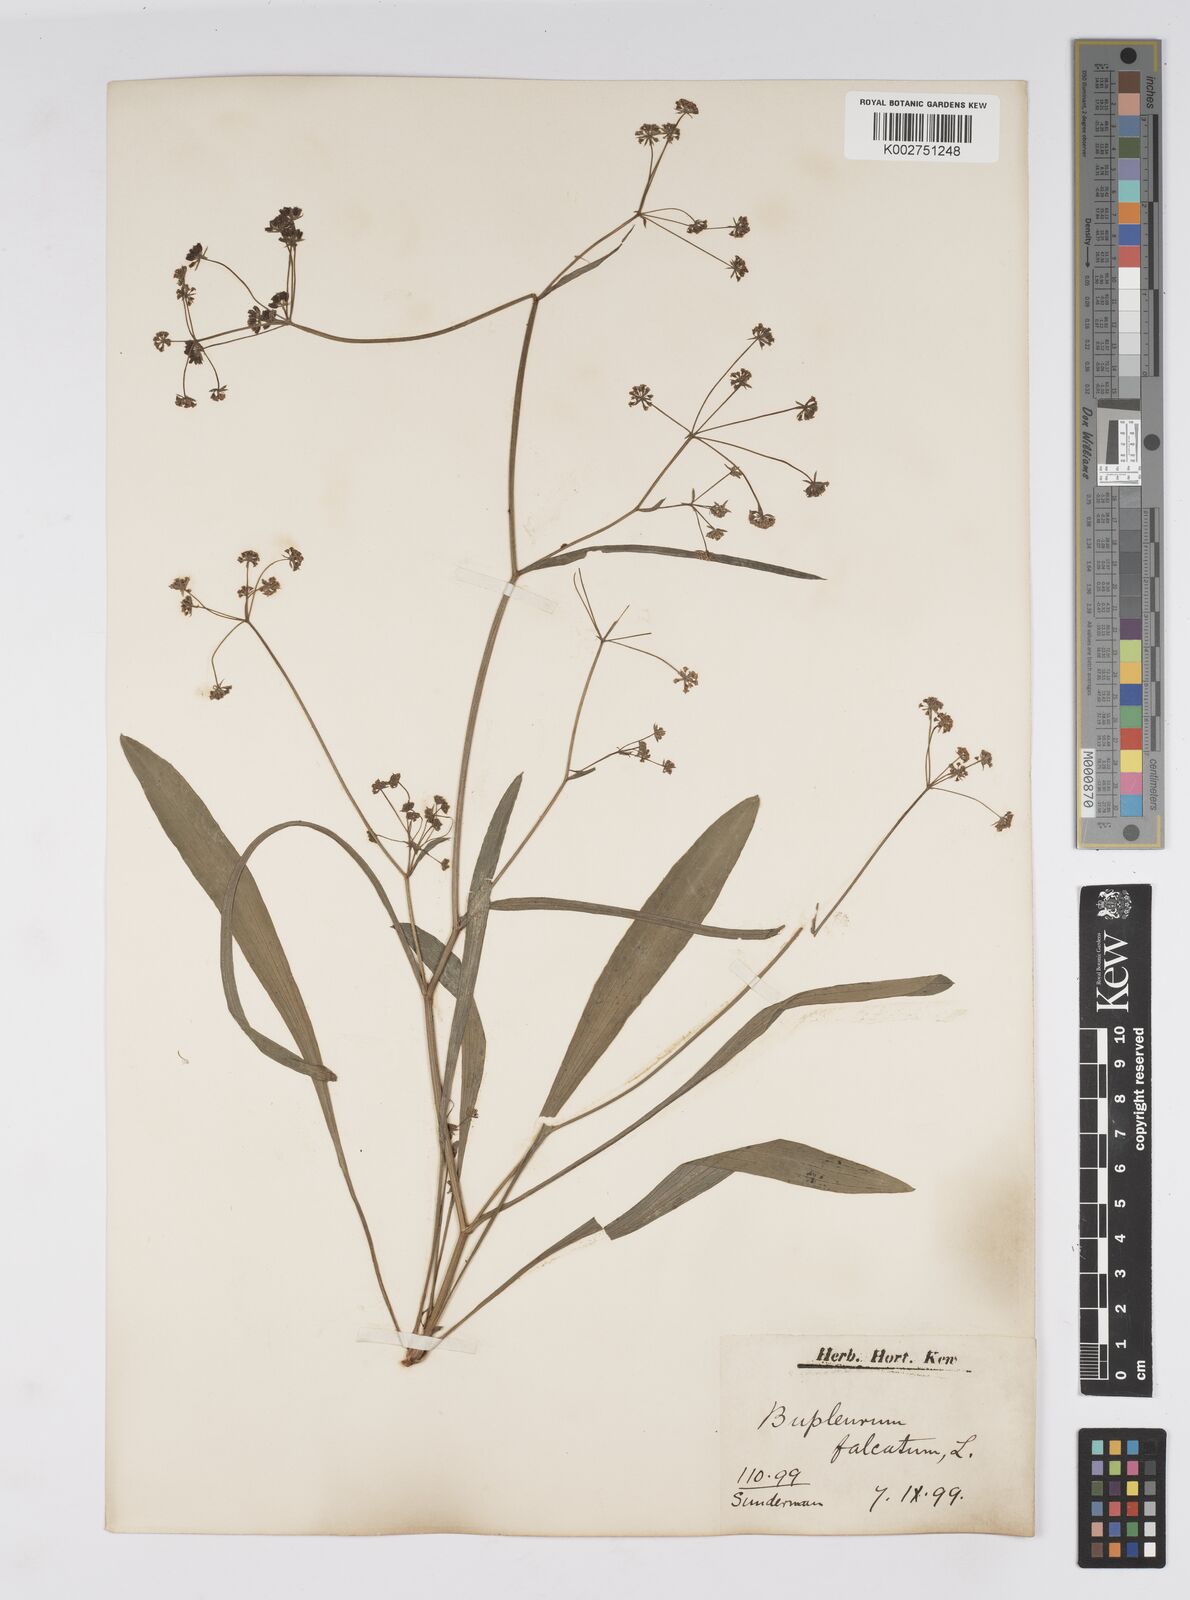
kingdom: Plantae
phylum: Tracheophyta
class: Magnoliopsida
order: Apiales
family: Apiaceae
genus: Bupleurum
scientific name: Bupleurum falcatum
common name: Sickle-leaved hare's-ear
